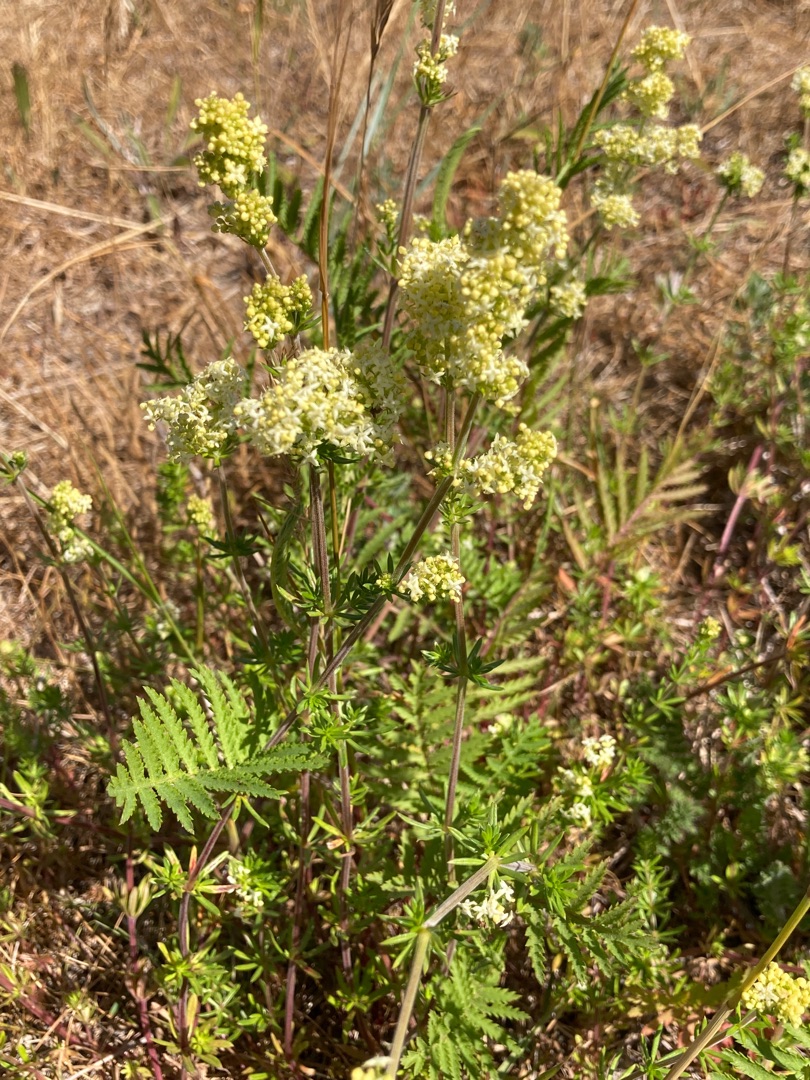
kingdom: Plantae
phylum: Tracheophyta
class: Magnoliopsida
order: Gentianales
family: Rubiaceae
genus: Galium
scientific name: Galium mollugo
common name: Hvid snerre
